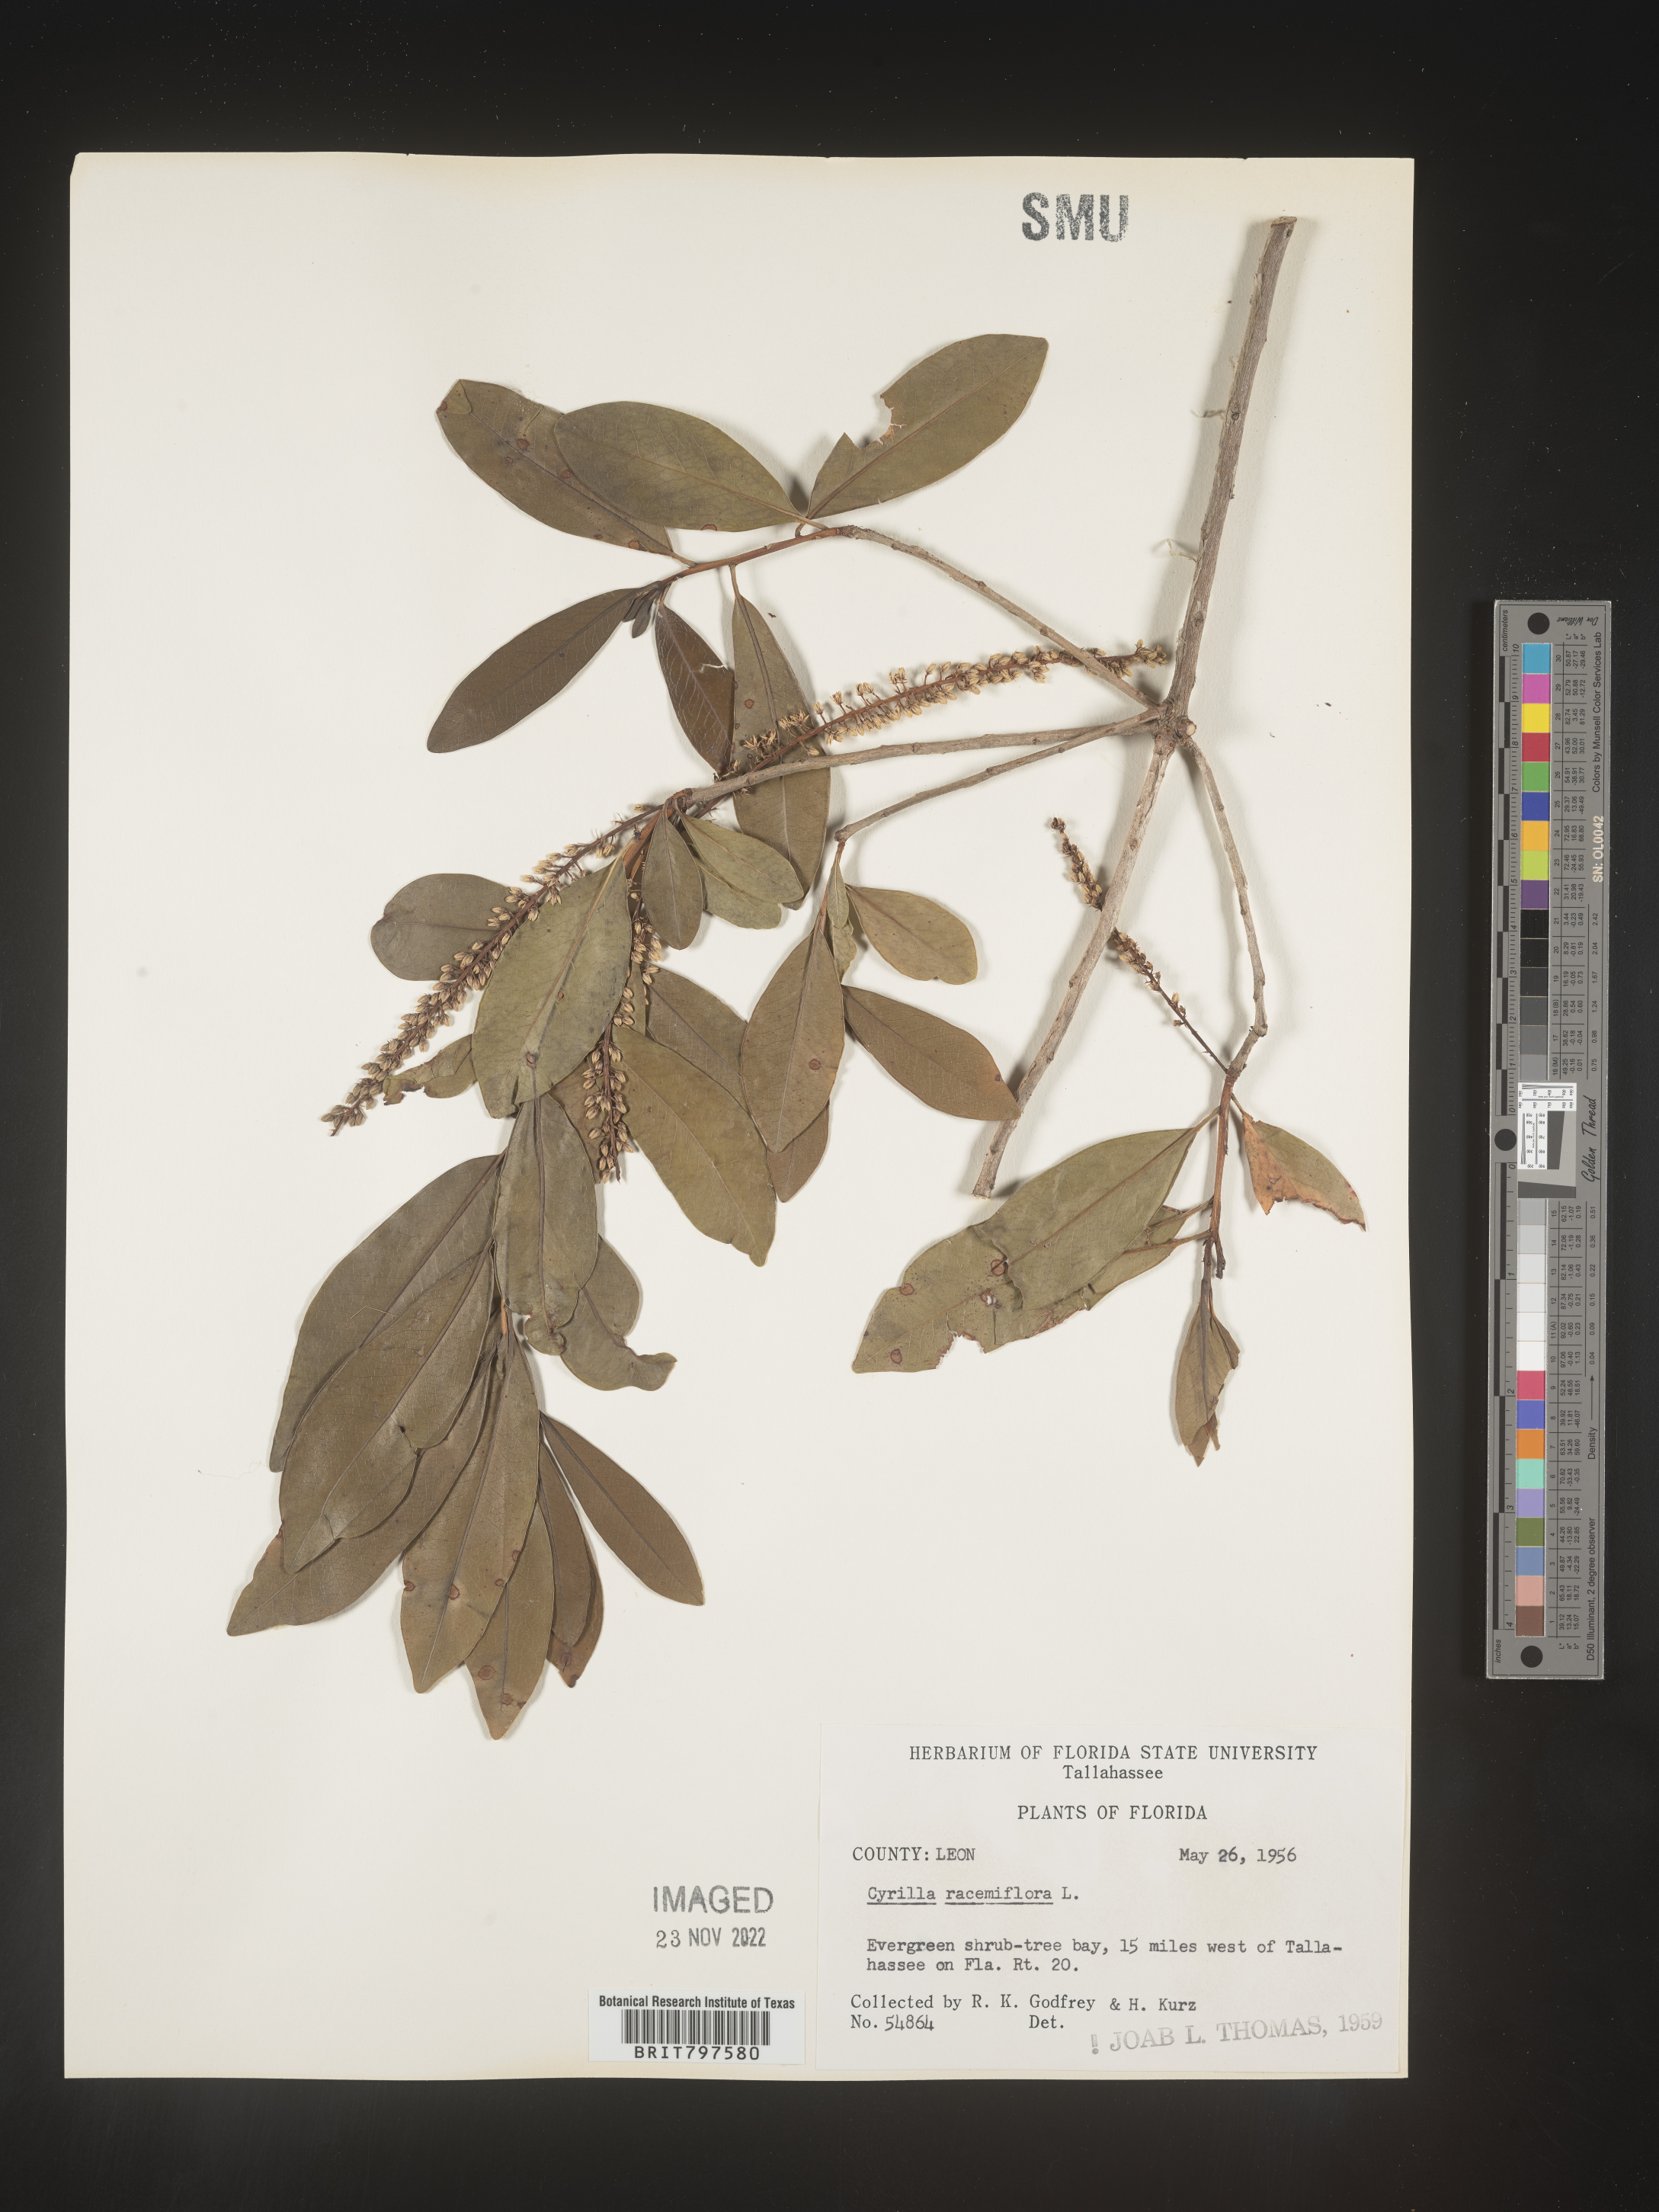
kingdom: Plantae
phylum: Tracheophyta
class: Magnoliopsida
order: Ericales
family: Cyrillaceae
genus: Cyrilla
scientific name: Cyrilla racemiflora
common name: Black titi
